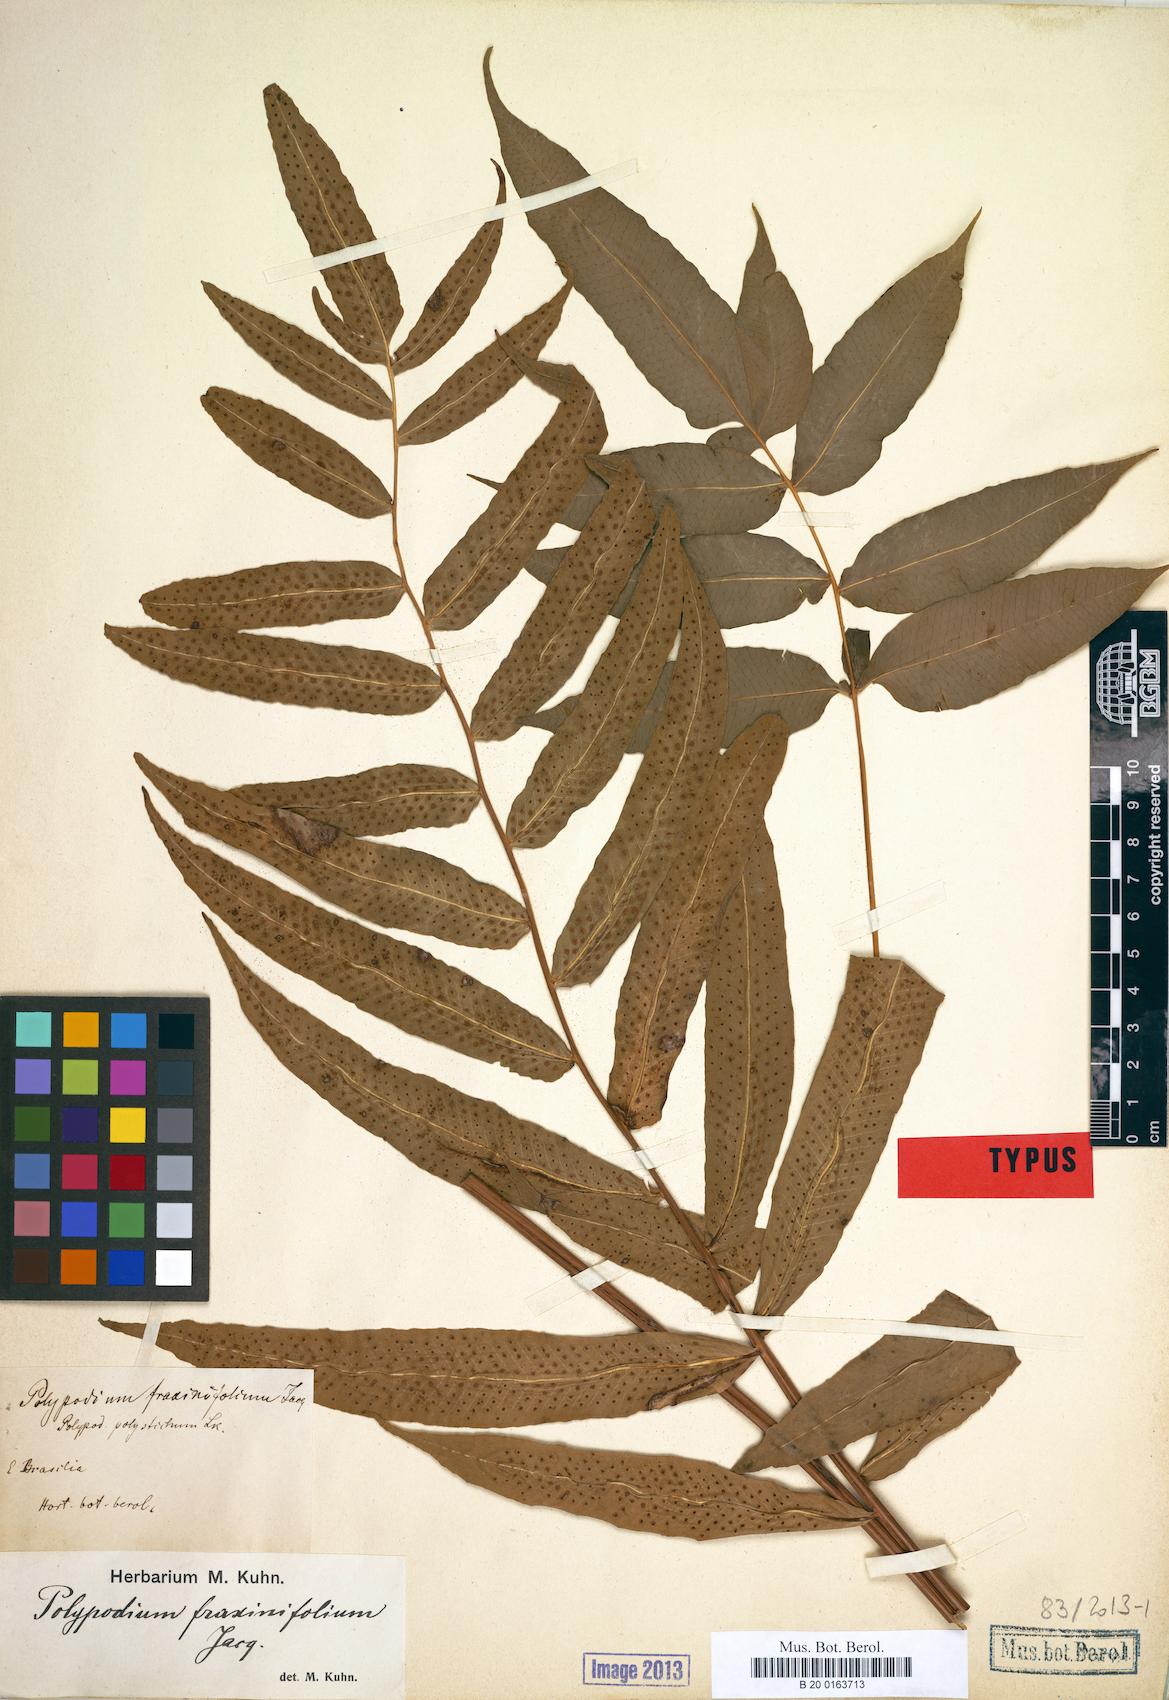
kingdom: Plantae
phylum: Tracheophyta
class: Polypodiopsida
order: Polypodiales
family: Polypodiaceae
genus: Serpocaulon
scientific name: Serpocaulon fraxinifolium
